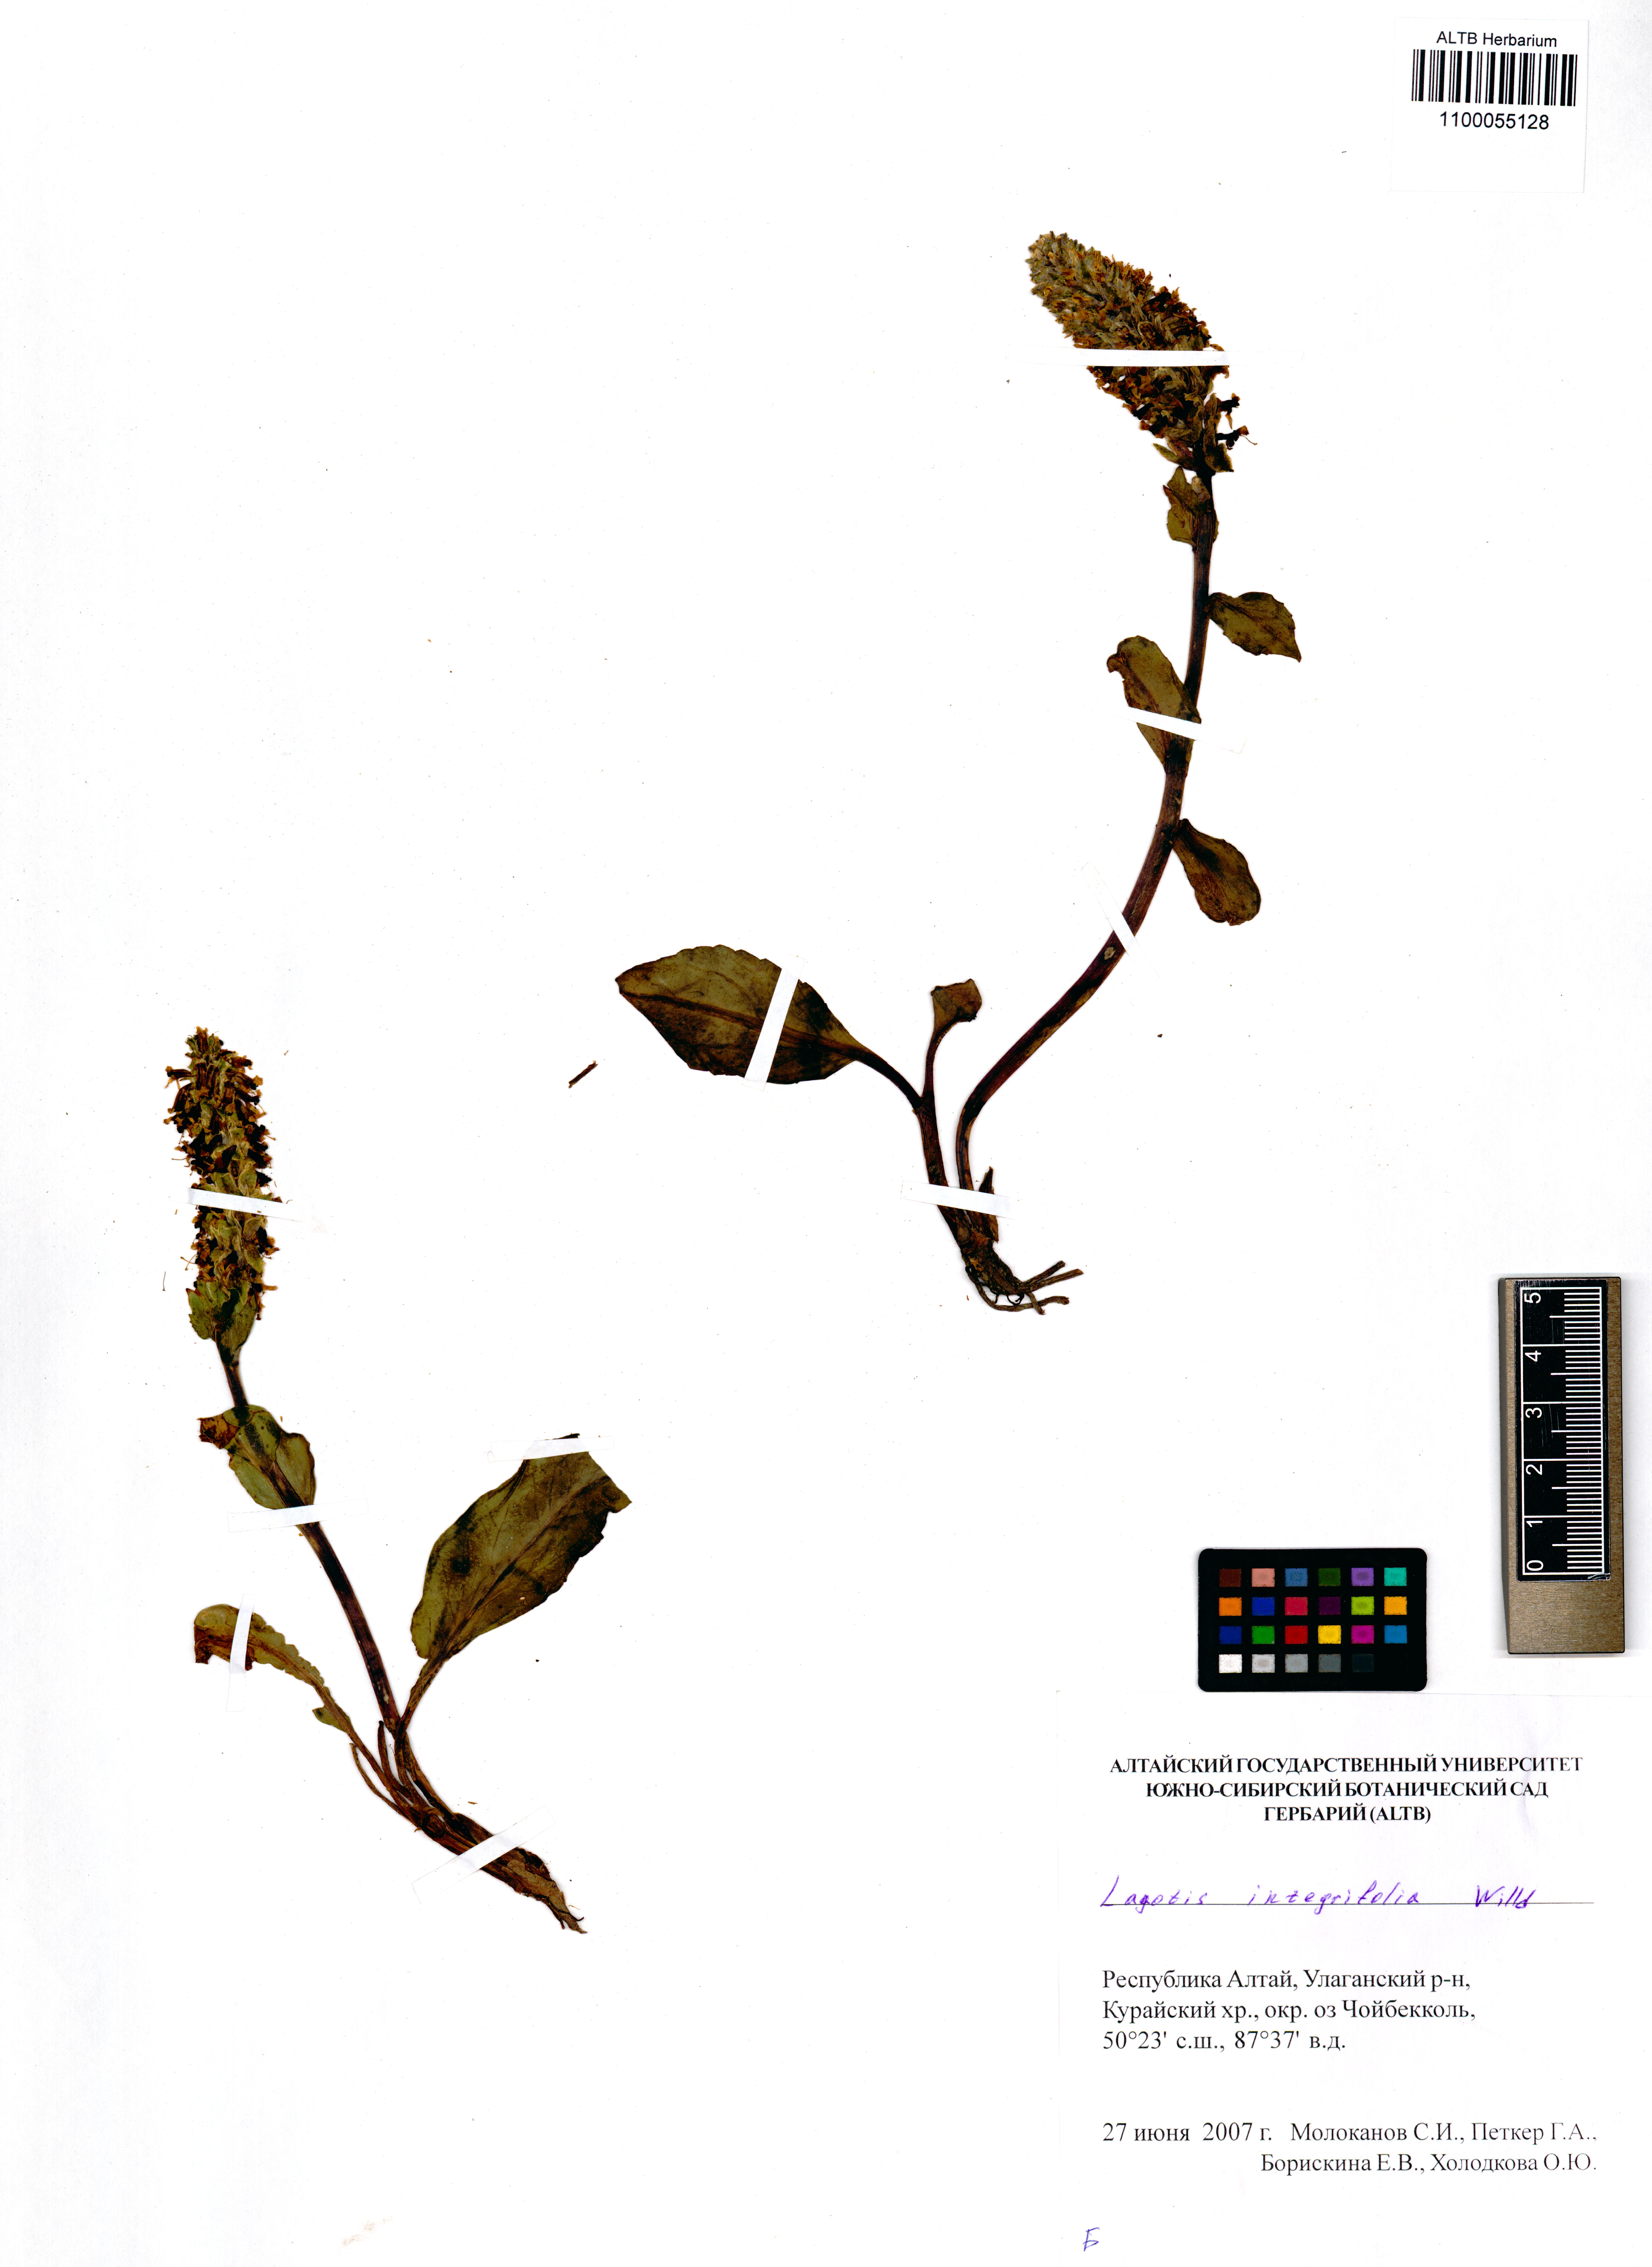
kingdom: Plantae
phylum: Tracheophyta
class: Magnoliopsida
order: Lamiales
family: Plantaginaceae
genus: Lagotis
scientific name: Lagotis integrifolia
